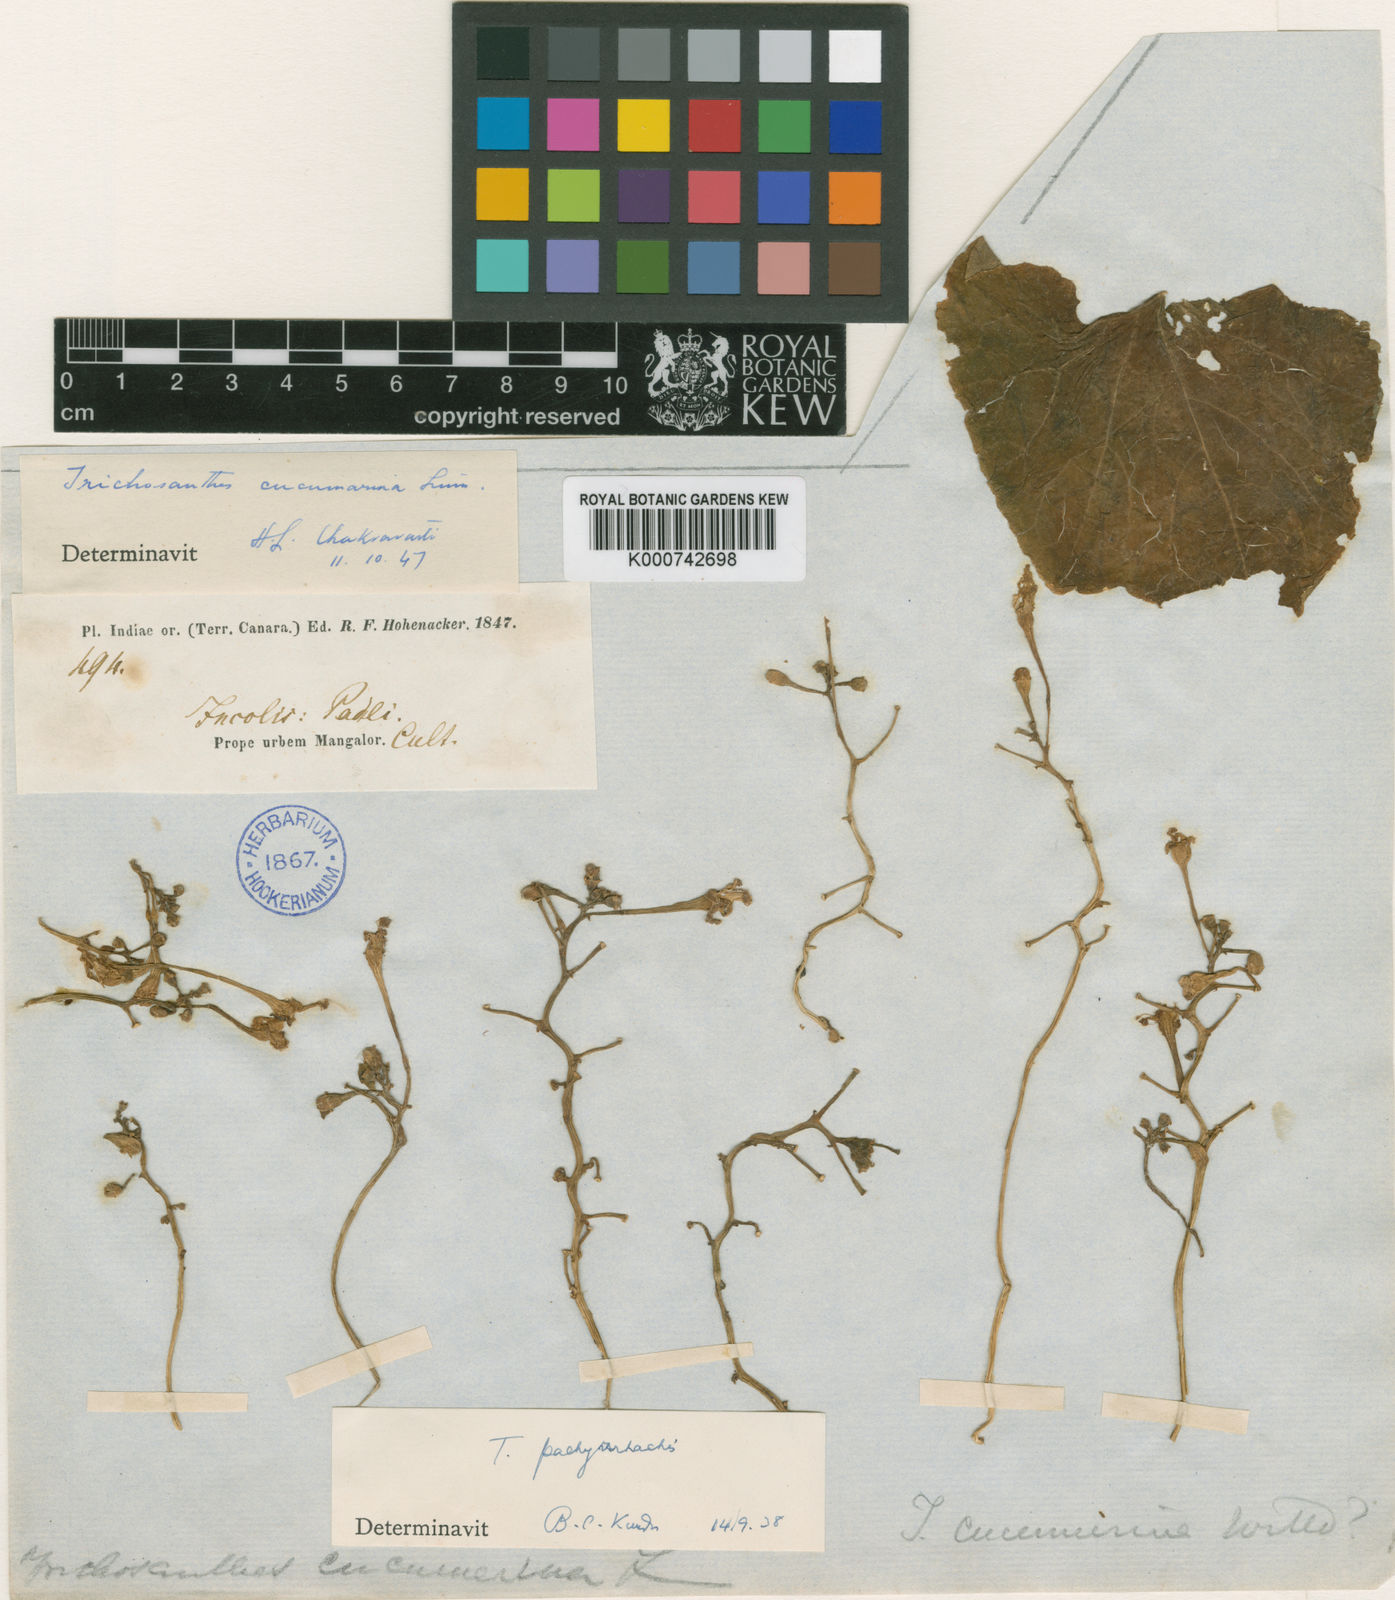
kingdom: Plantae
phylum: Tracheophyta
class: Magnoliopsida
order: Cucurbitales
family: Cucurbitaceae
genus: Trichosanthes
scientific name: Trichosanthes cucumerina
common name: Snakegourd
